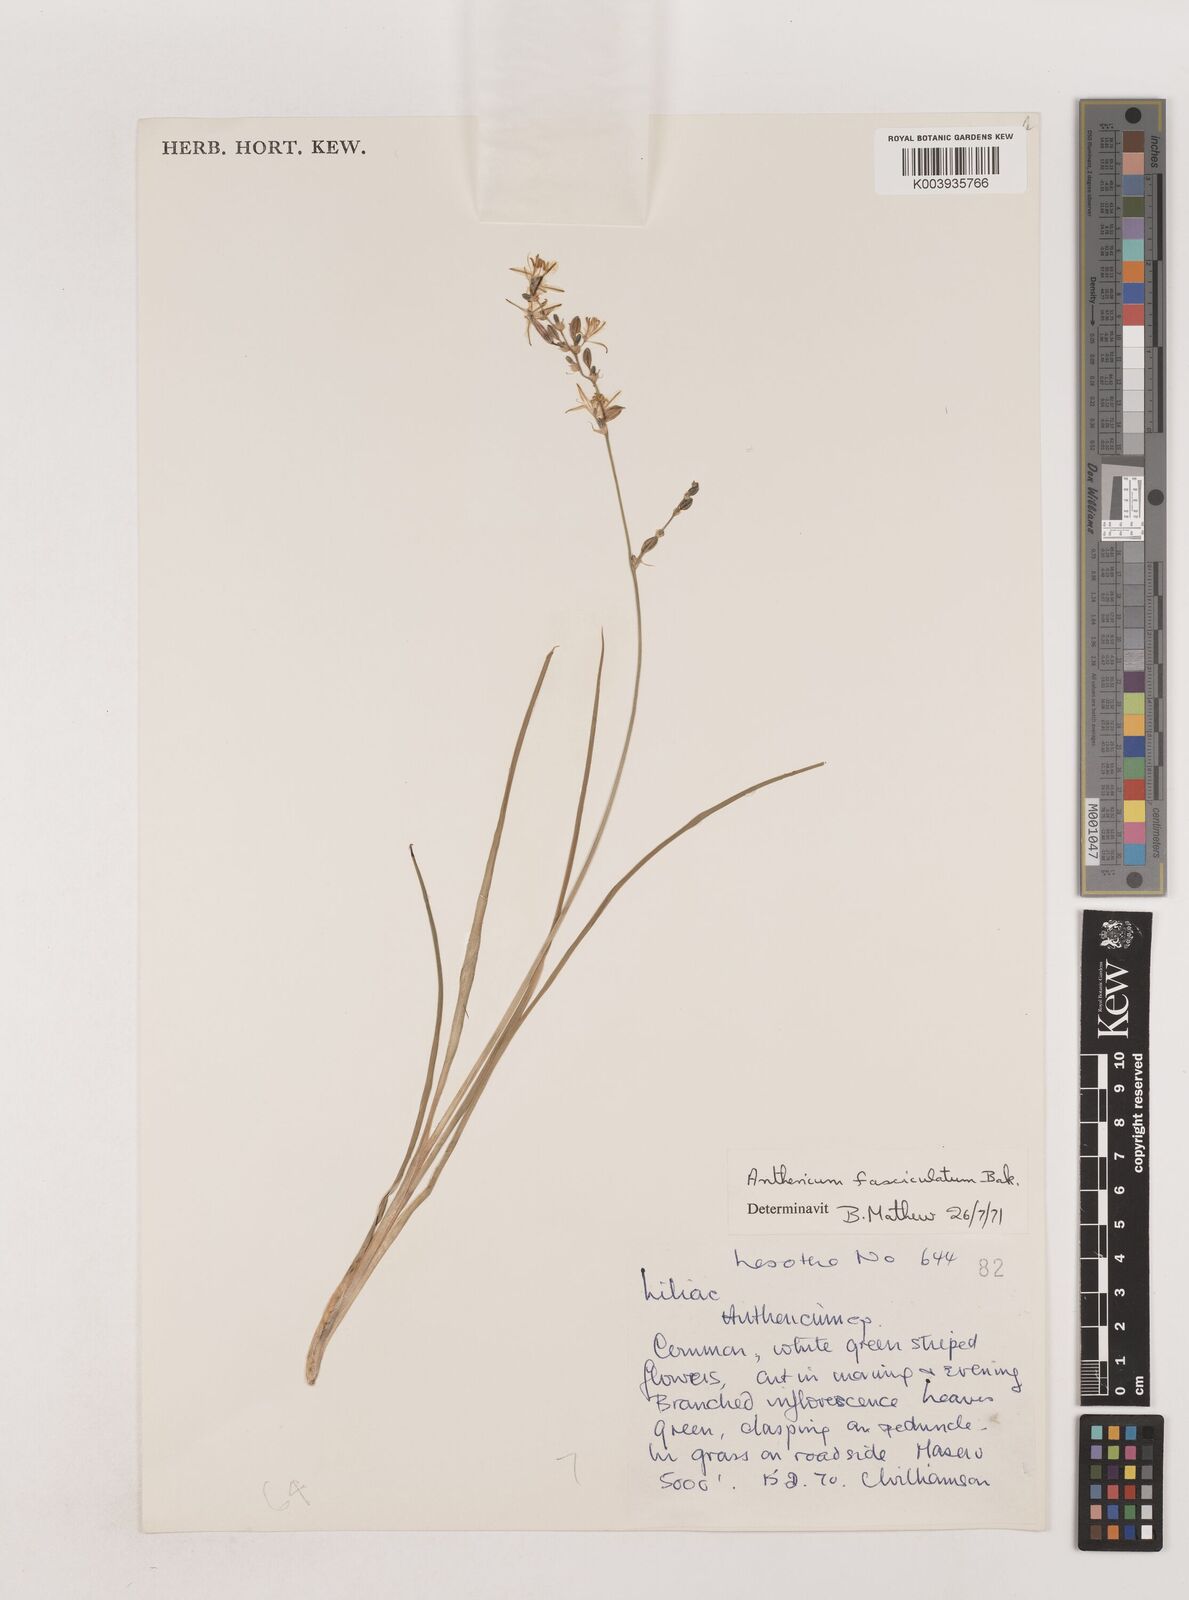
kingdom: Plantae
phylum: Tracheophyta
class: Liliopsida
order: Asparagales
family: Asparagaceae
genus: Chlorophytum
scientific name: Chlorophytum fasciculatum
